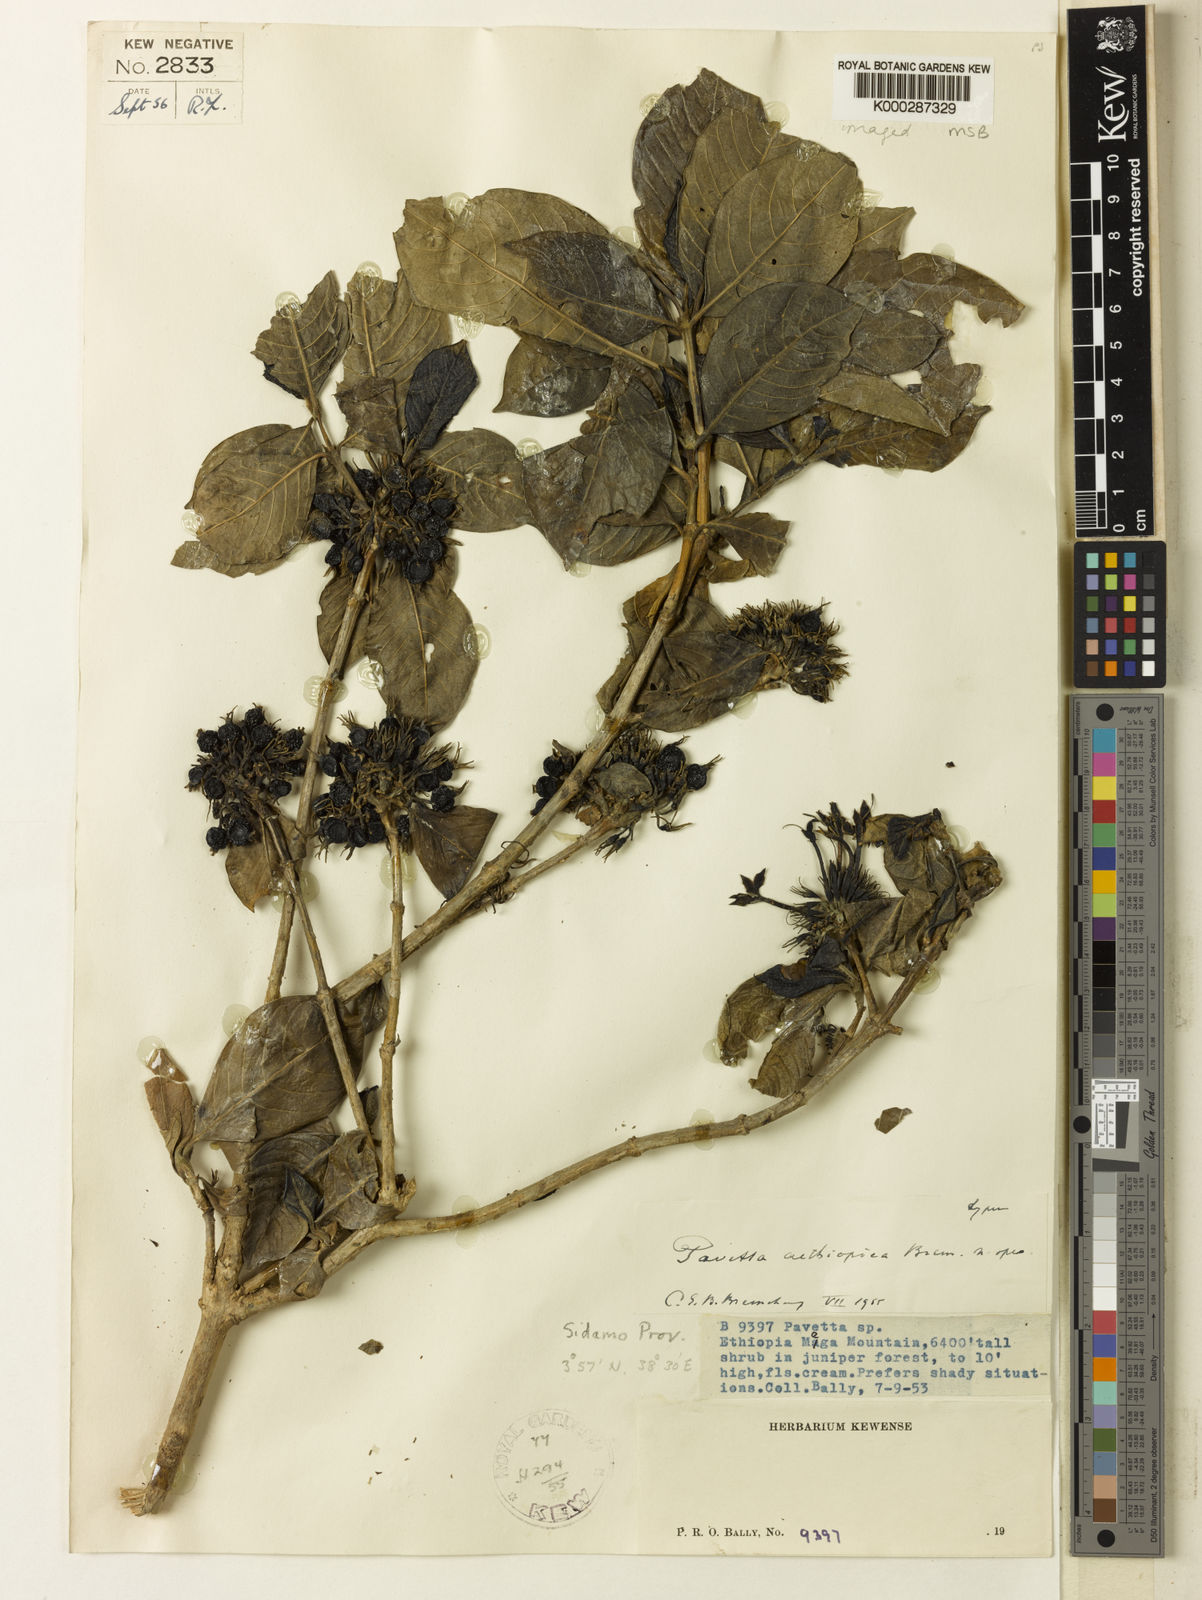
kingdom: Plantae
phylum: Tracheophyta
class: Magnoliopsida
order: Gentianales
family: Rubiaceae
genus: Pavetta
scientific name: Pavetta aethiopica
